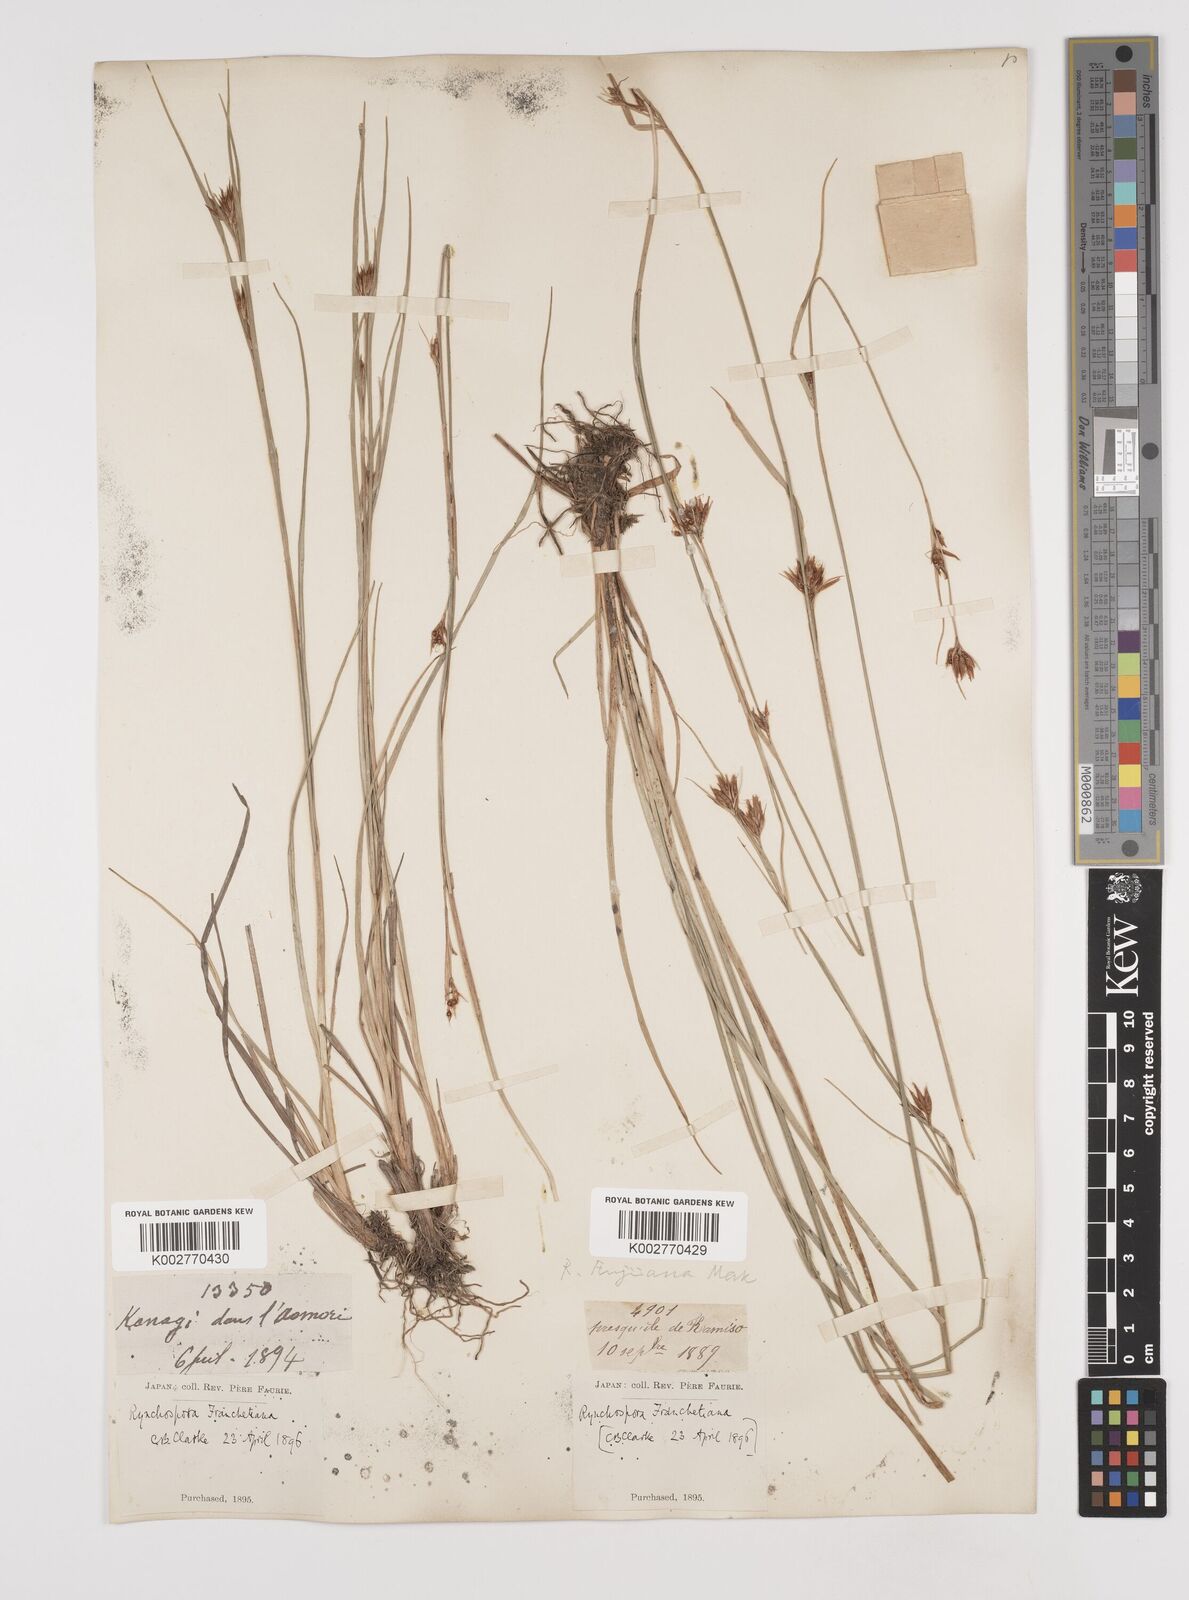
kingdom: Plantae
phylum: Tracheophyta
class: Liliopsida
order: Poales
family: Cyperaceae
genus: Rhynchospora
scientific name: Rhynchospora fujiiana
